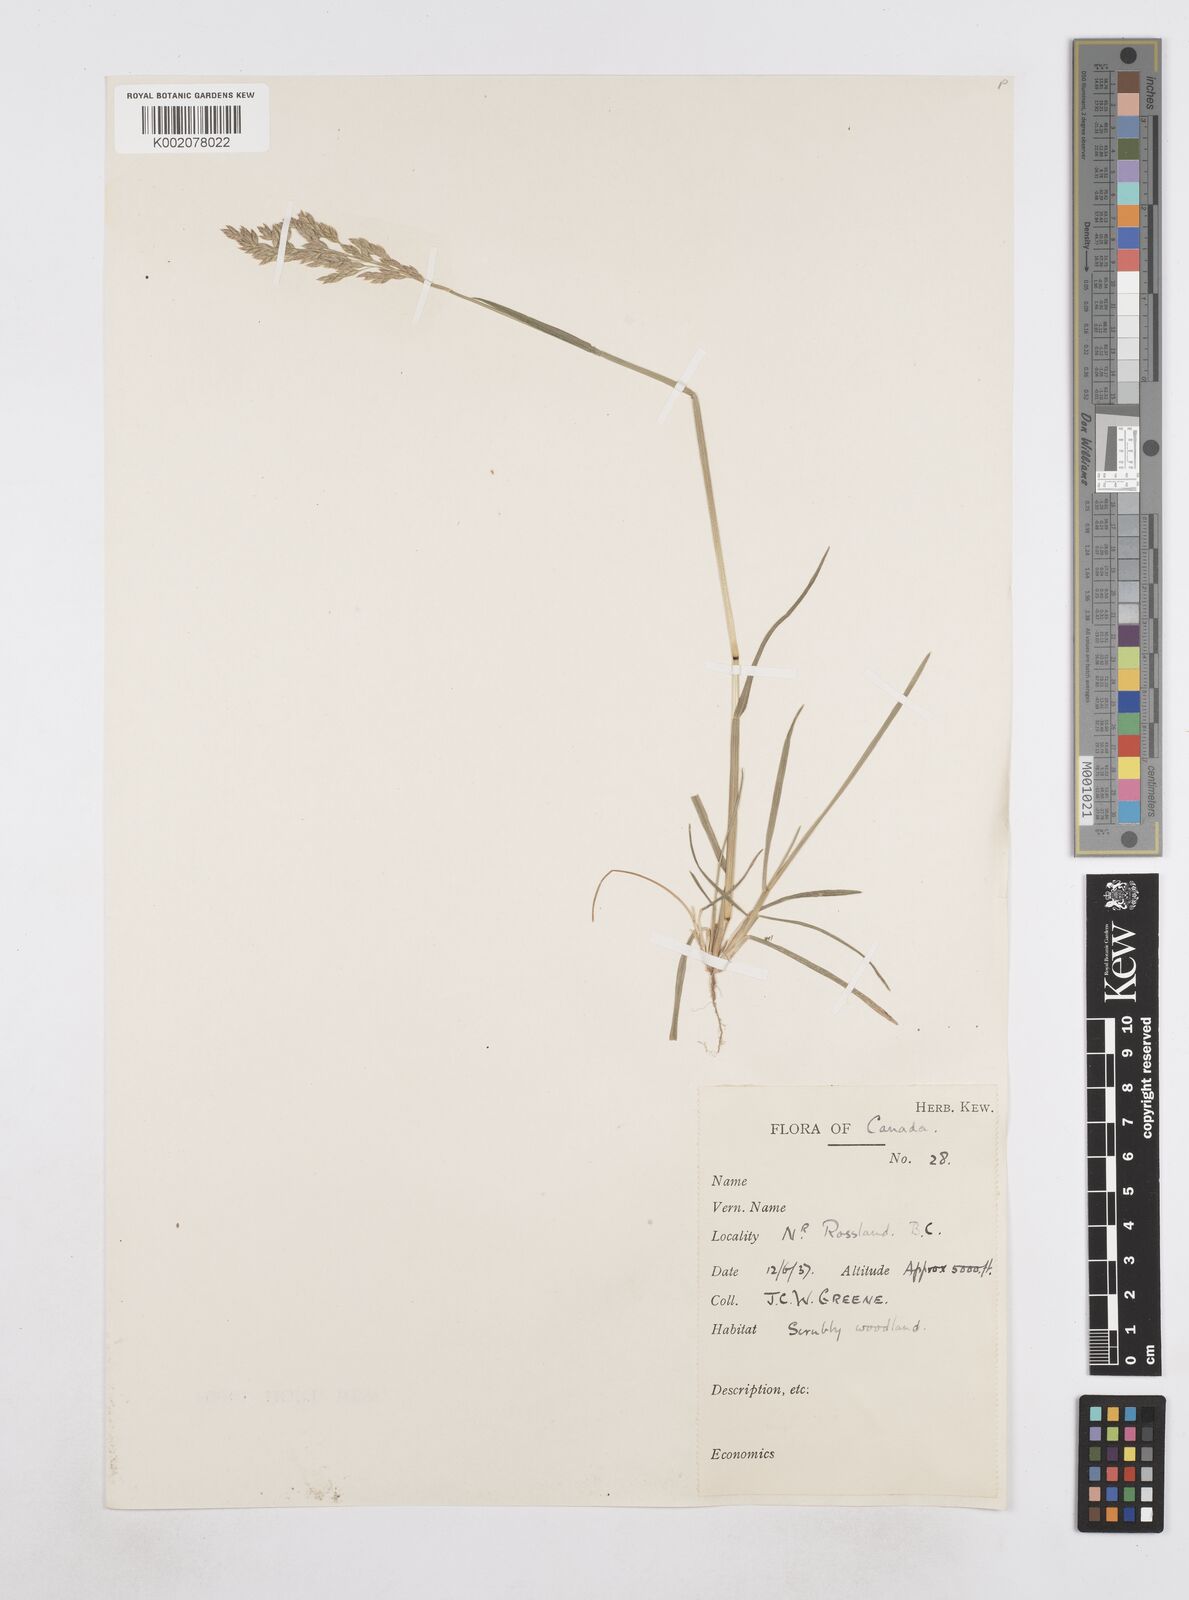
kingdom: Plantae
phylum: Tracheophyta
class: Liliopsida
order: Poales
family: Poaceae
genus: Poa
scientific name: Poa
